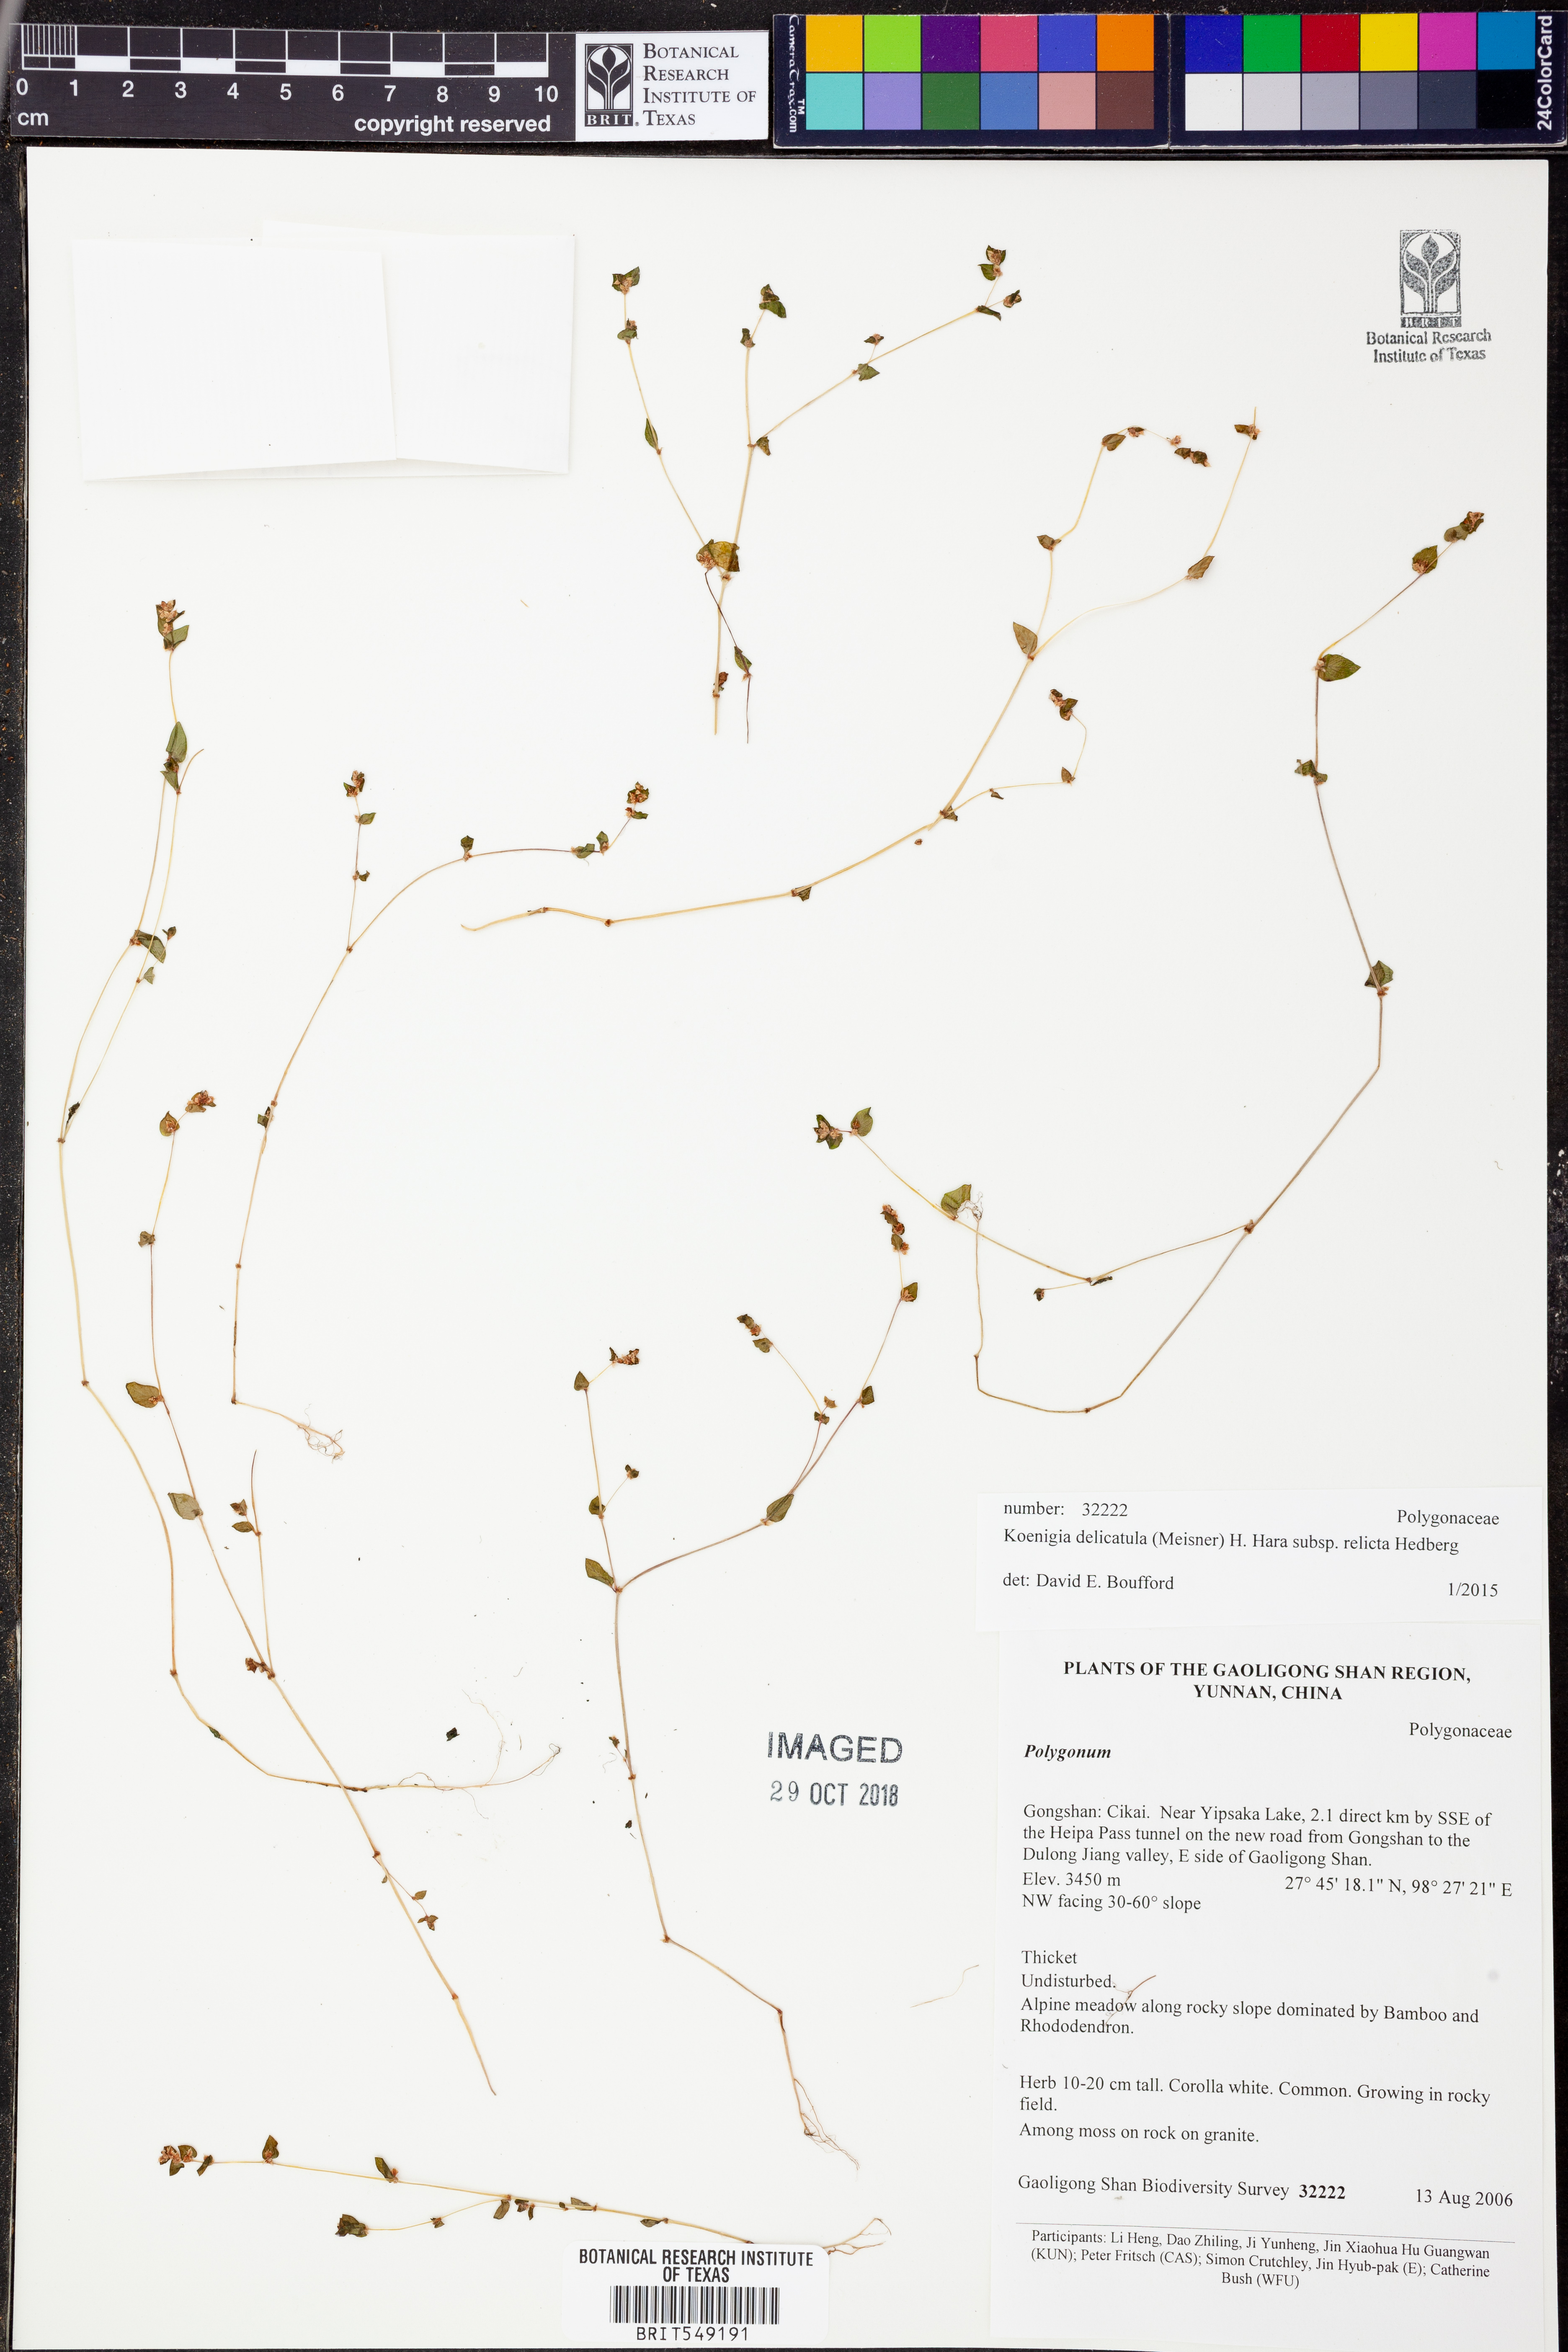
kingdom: Plantae
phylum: Tracheophyta
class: Magnoliopsida
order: Caryophyllales
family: Polygonaceae
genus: Koenigia
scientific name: Koenigia delicatula
